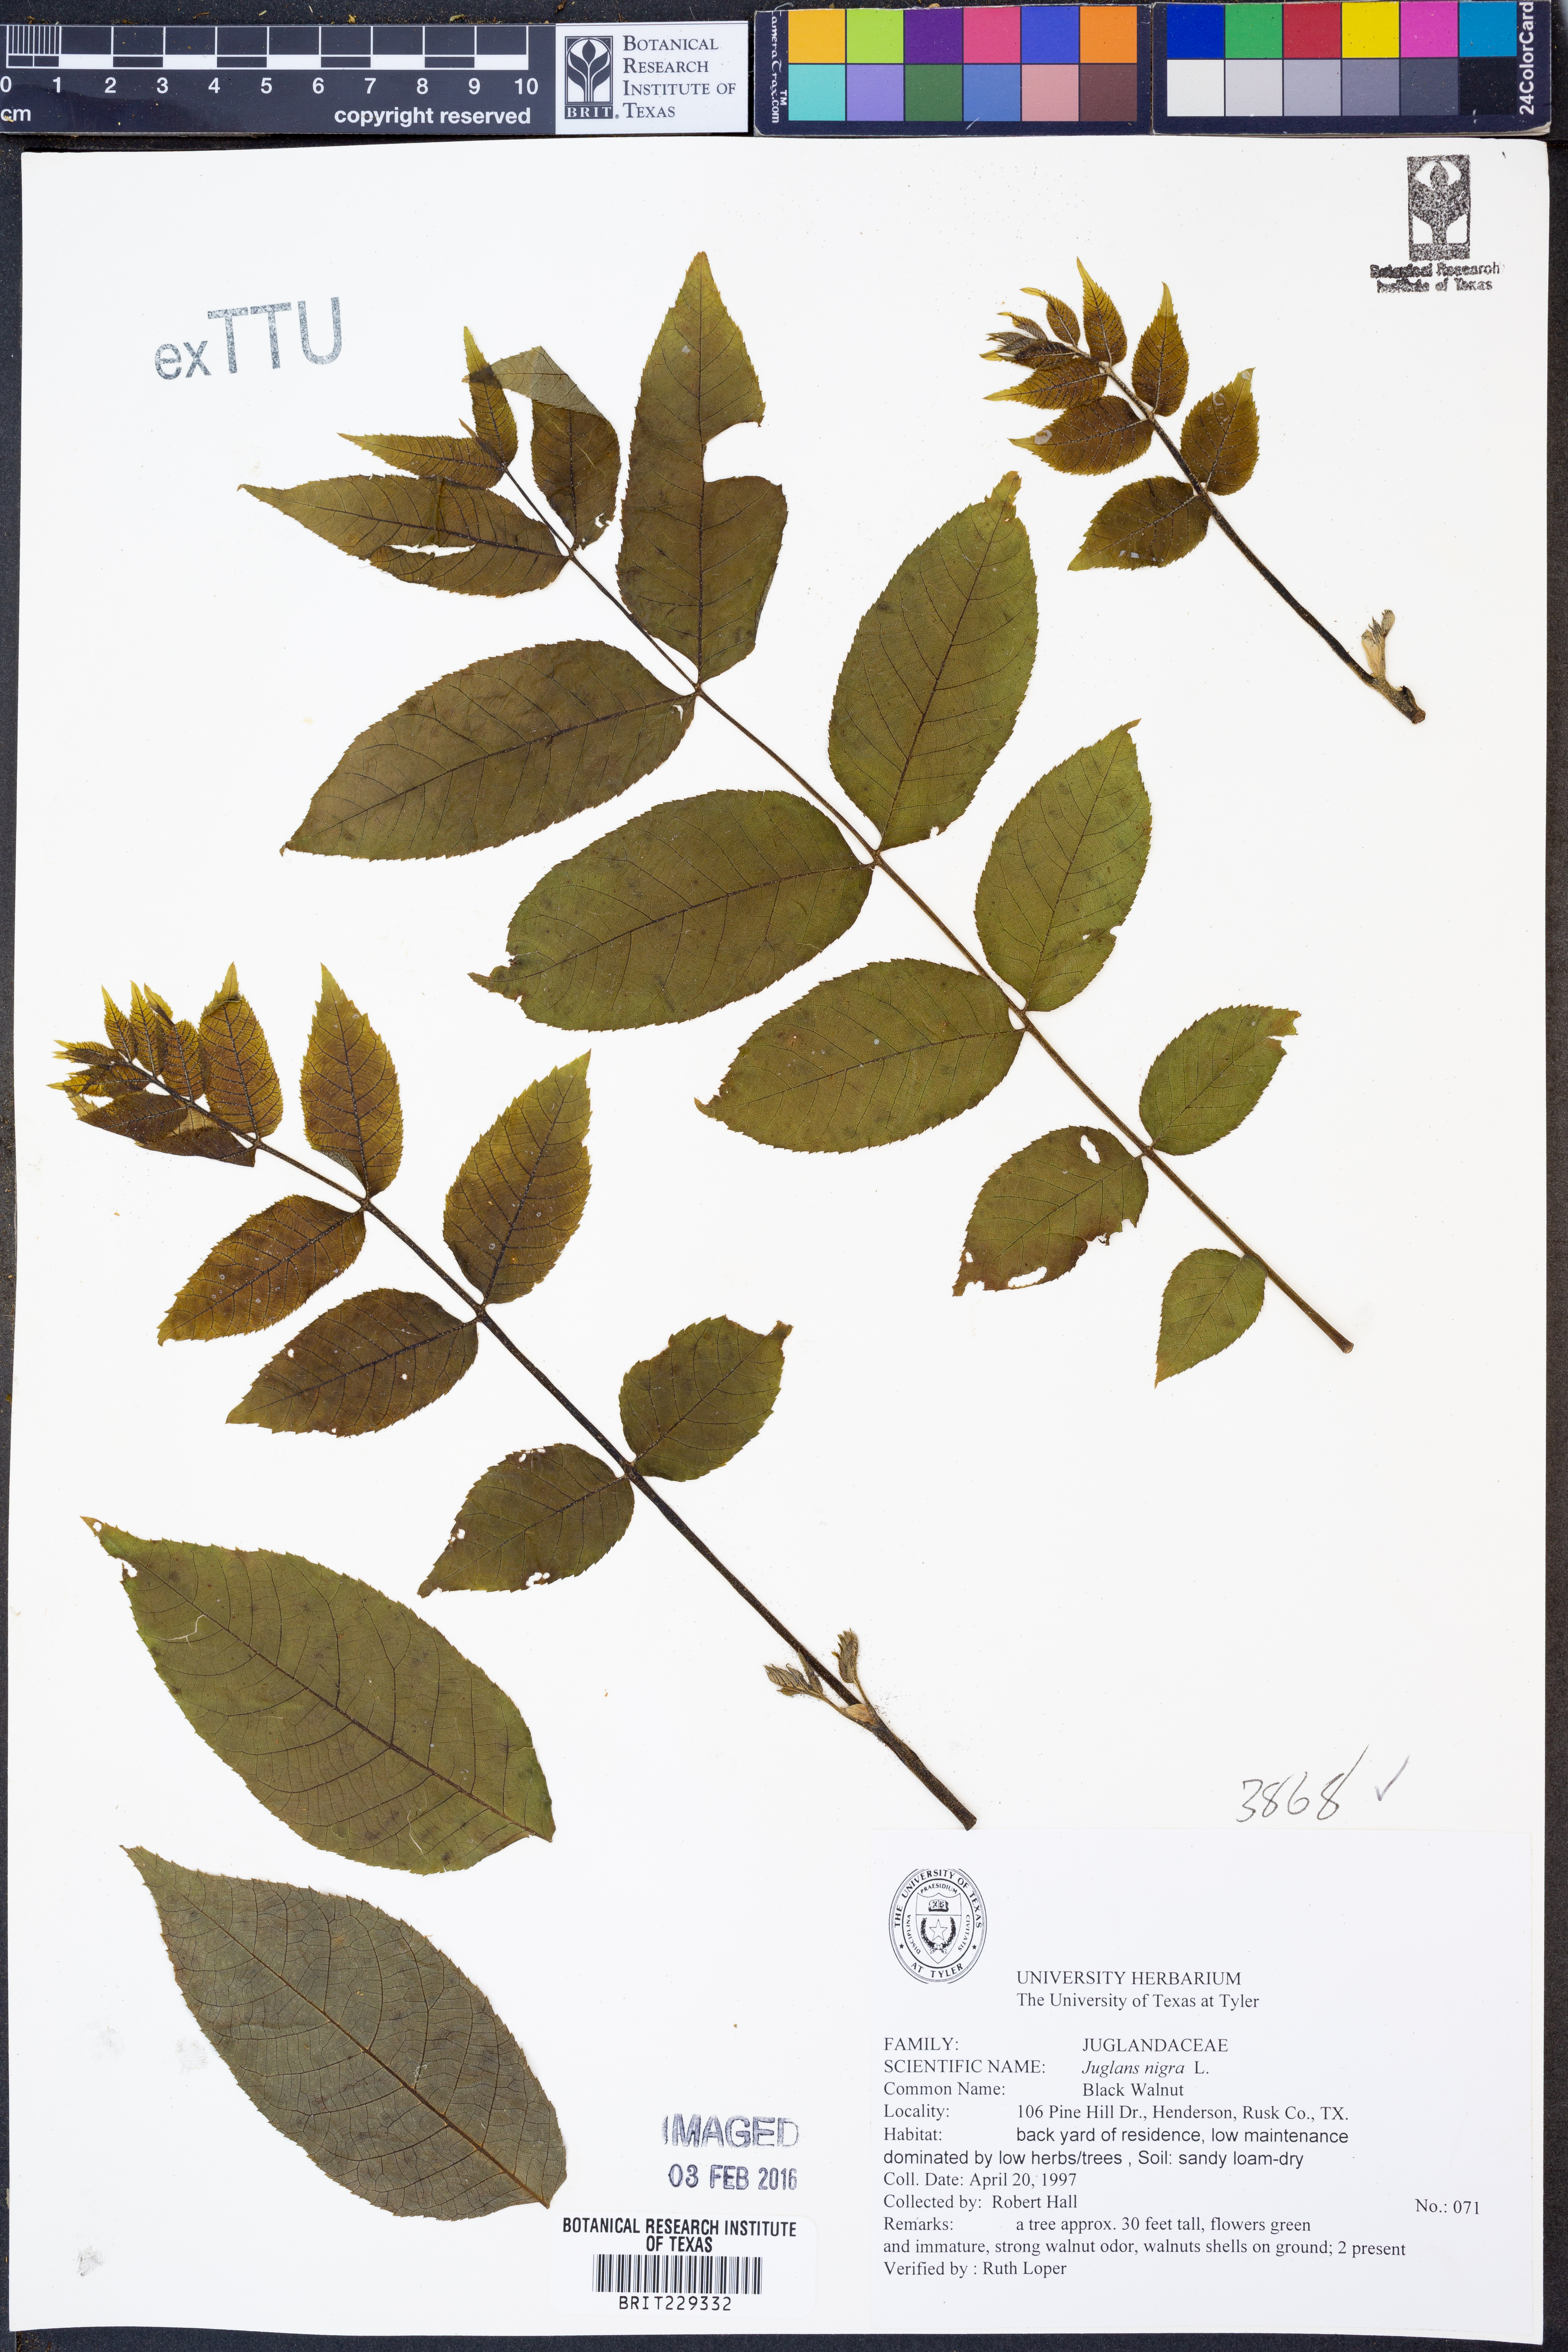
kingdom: Plantae
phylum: Tracheophyta
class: Magnoliopsida
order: Fagales
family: Juglandaceae
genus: Juglans
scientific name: Juglans nigra
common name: Black walnut
